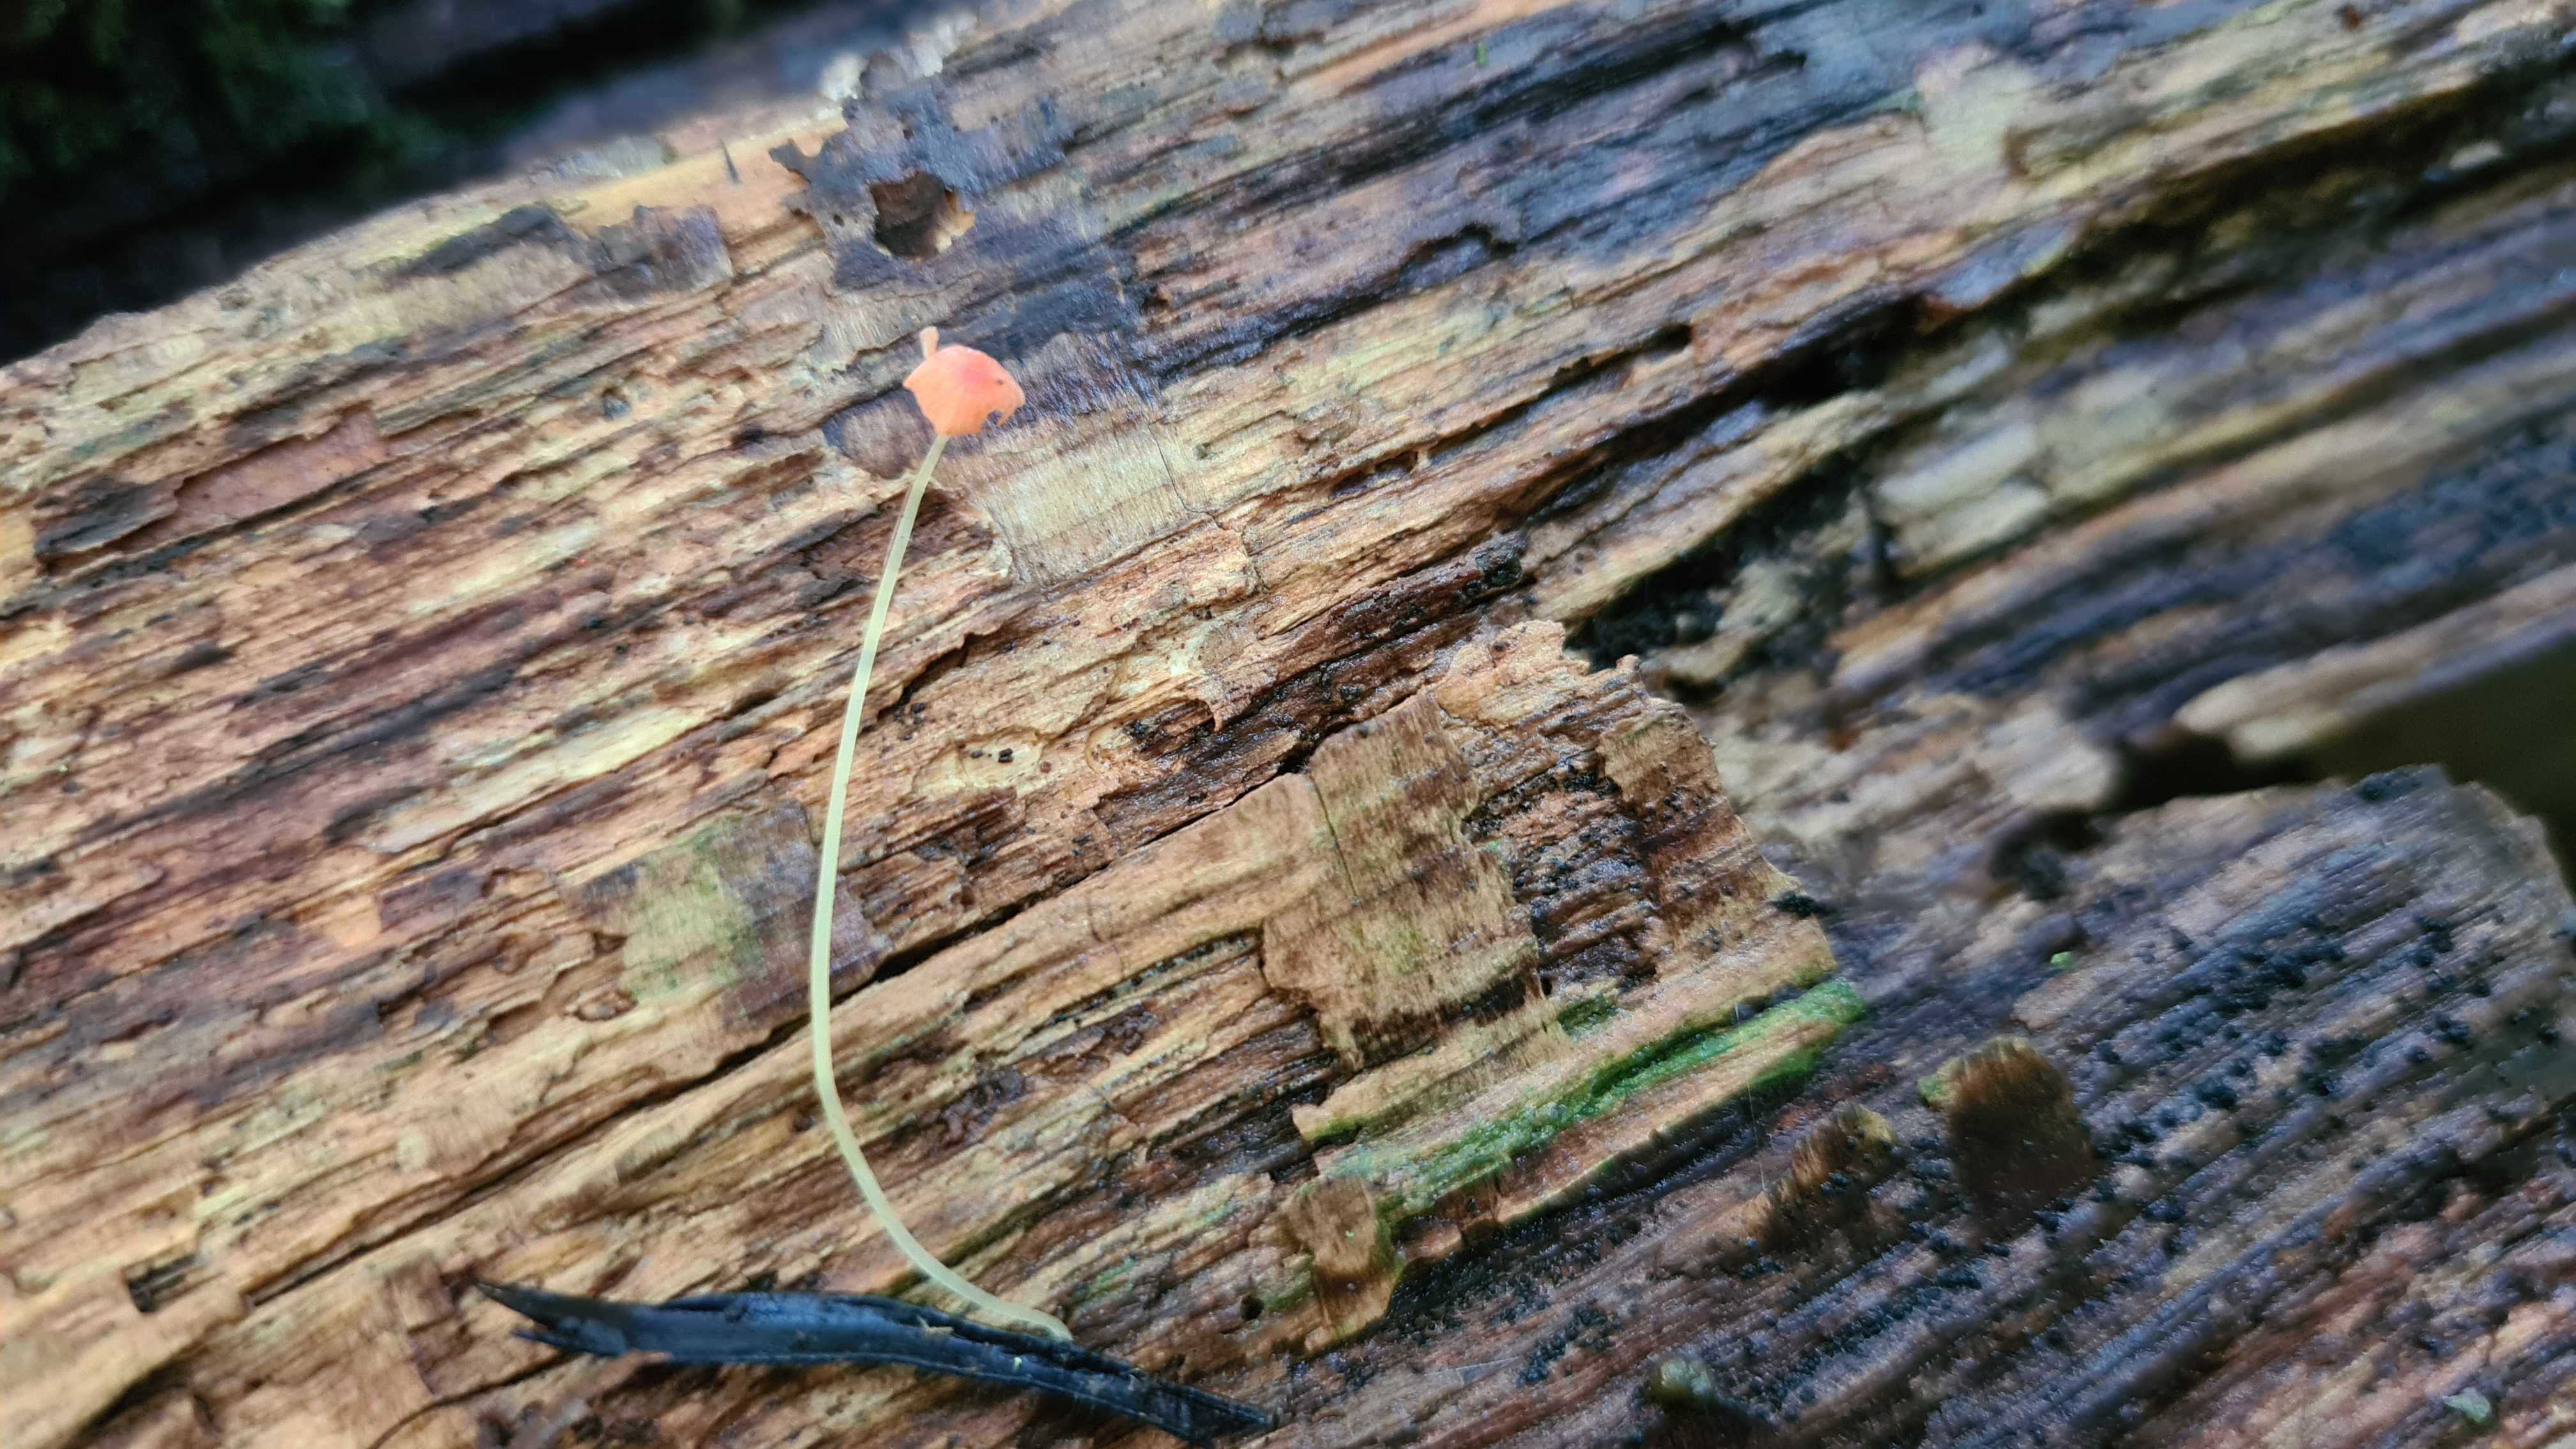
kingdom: Fungi
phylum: Basidiomycota
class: Agaricomycetes
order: Agaricales
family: Mycenaceae
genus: Mycena
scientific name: Mycena acicula
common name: orange huesvamp
